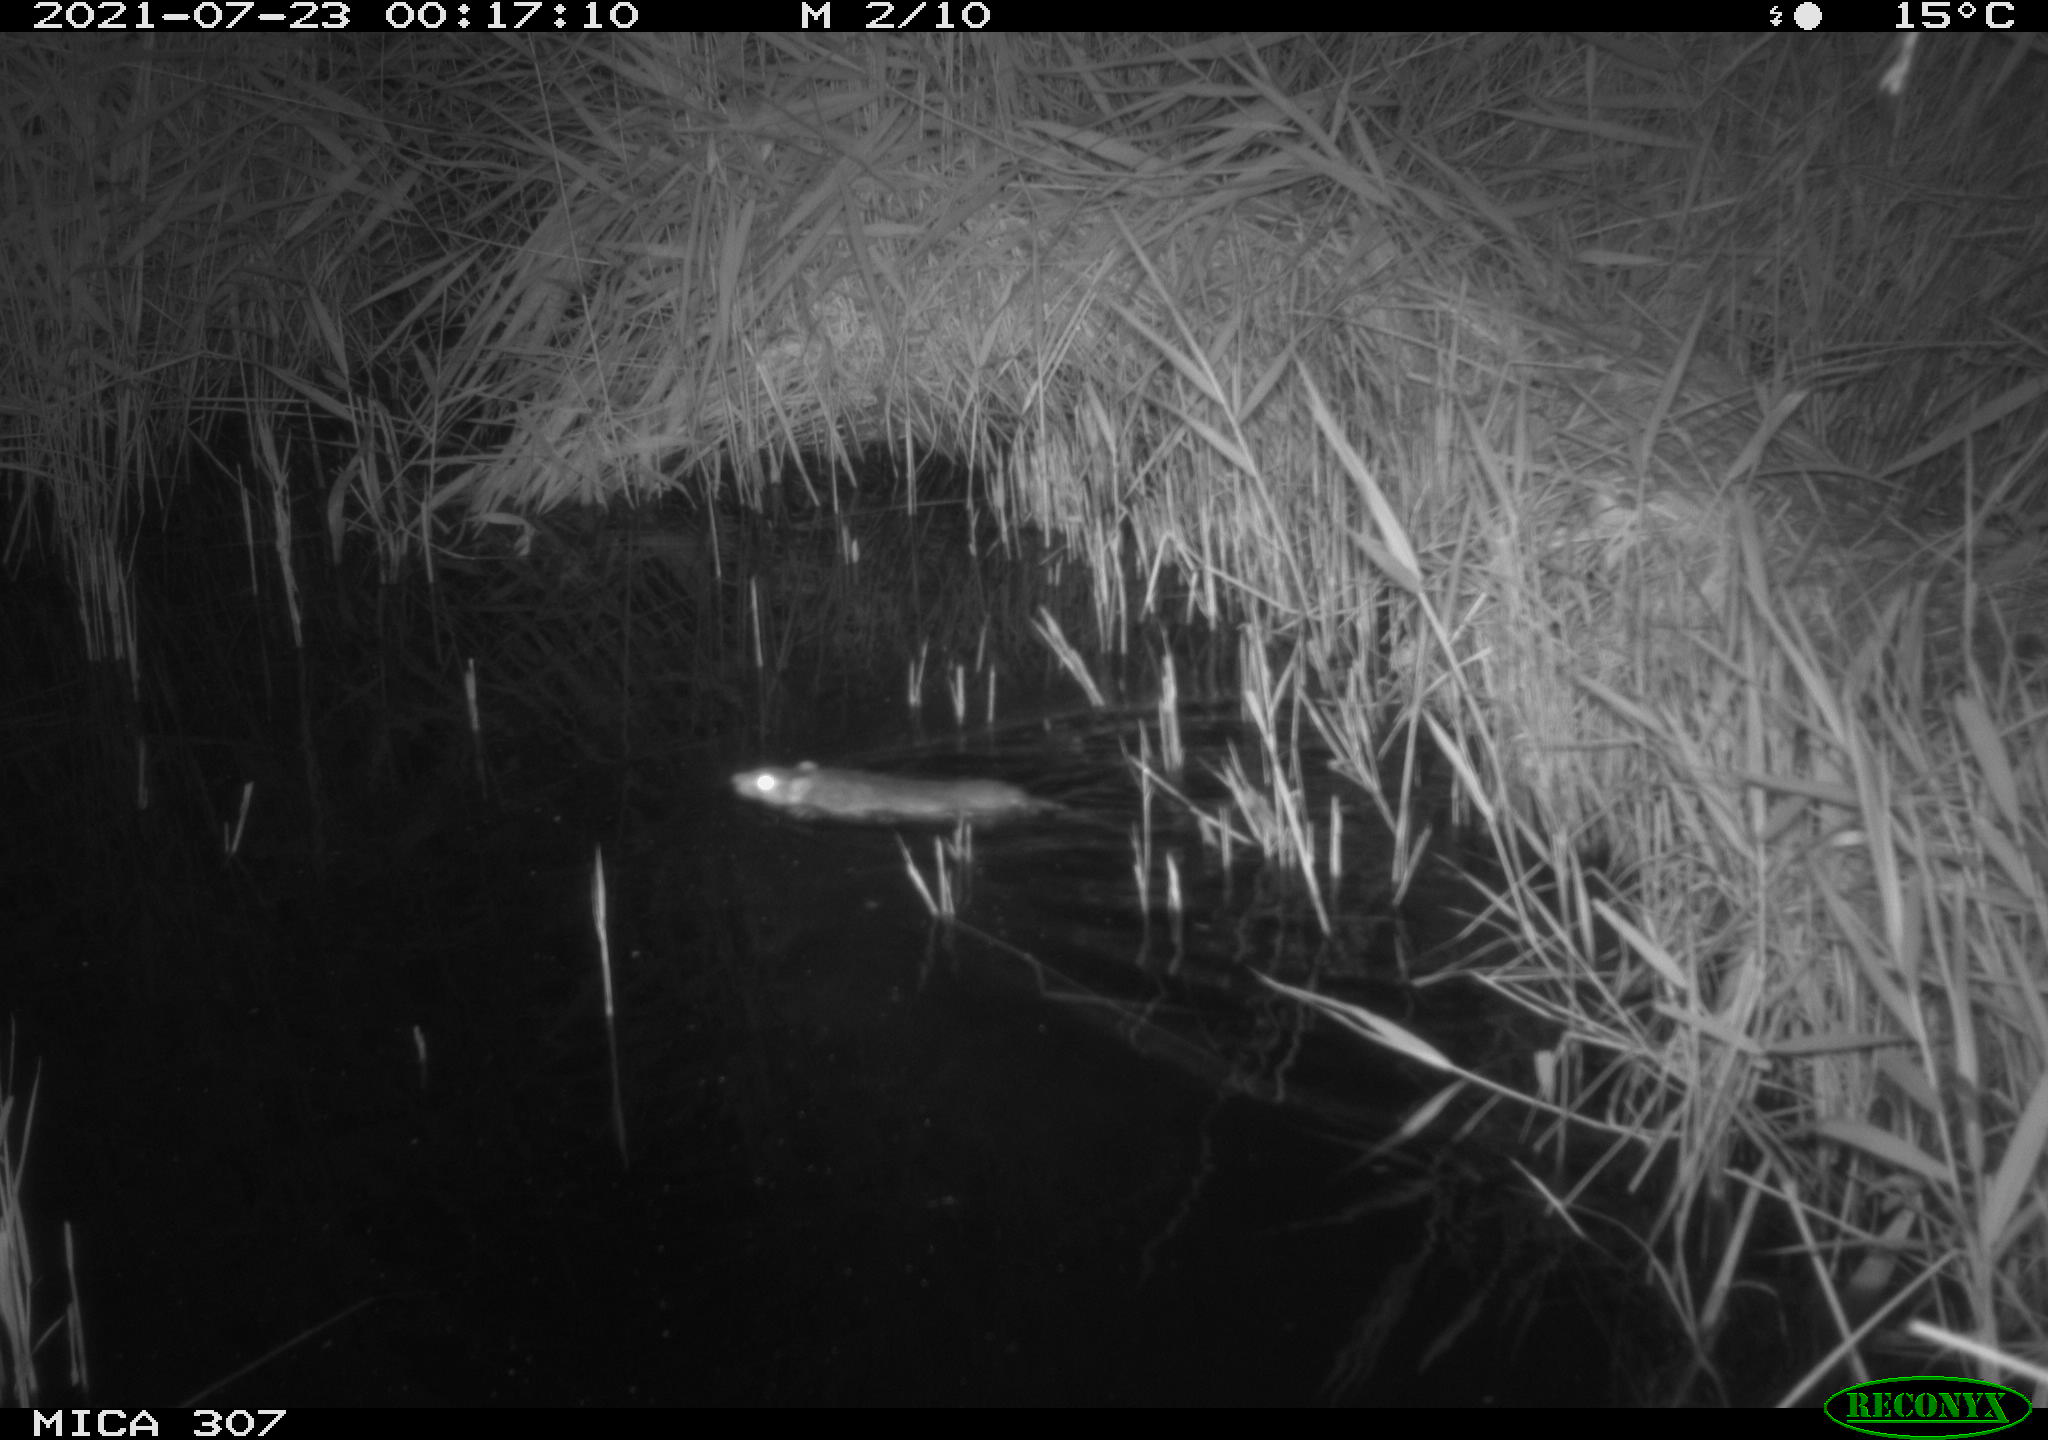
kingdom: Animalia
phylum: Chordata
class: Mammalia
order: Rodentia
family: Muridae
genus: Rattus
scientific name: Rattus norvegicus
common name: Brown rat
